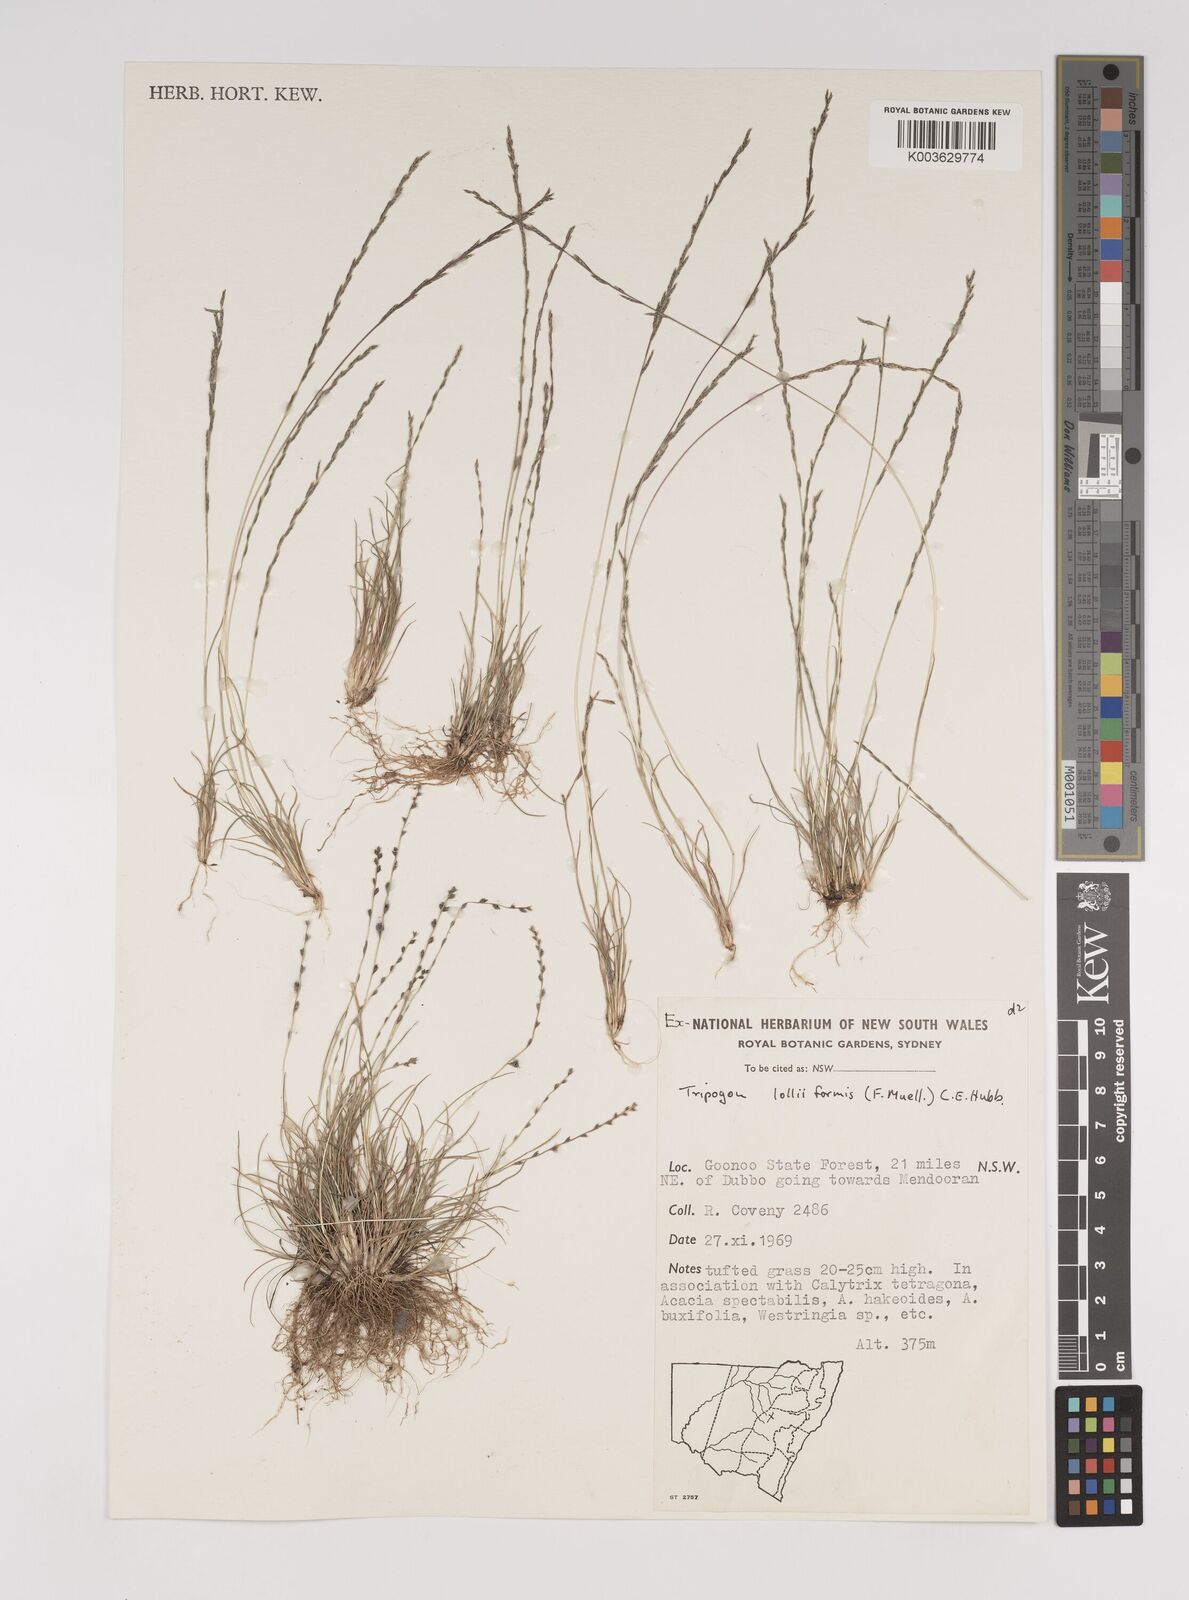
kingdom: Plantae
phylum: Tracheophyta
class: Liliopsida
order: Poales
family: Poaceae
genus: Tripogonella
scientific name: Tripogonella loliiformis
